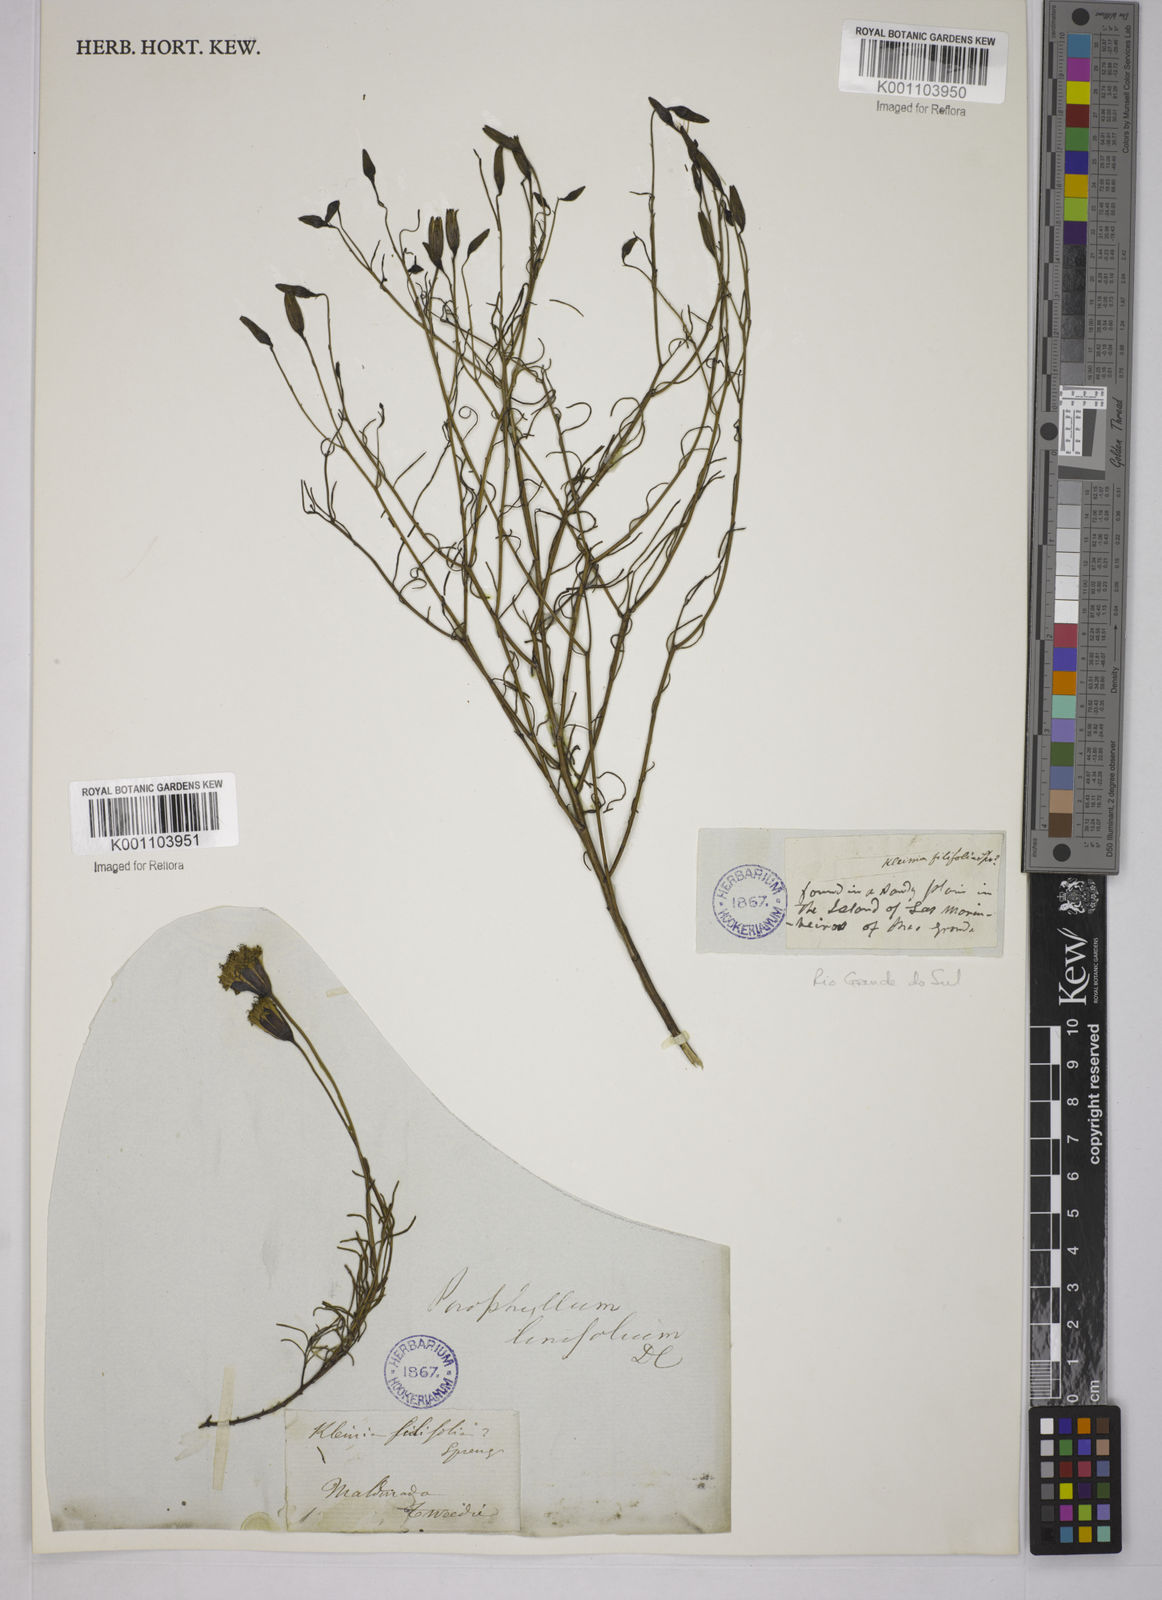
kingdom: Plantae
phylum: Tracheophyta
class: Magnoliopsida
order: Asterales
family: Asteraceae
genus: Porophyllum
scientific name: Porophyllum linifolium
